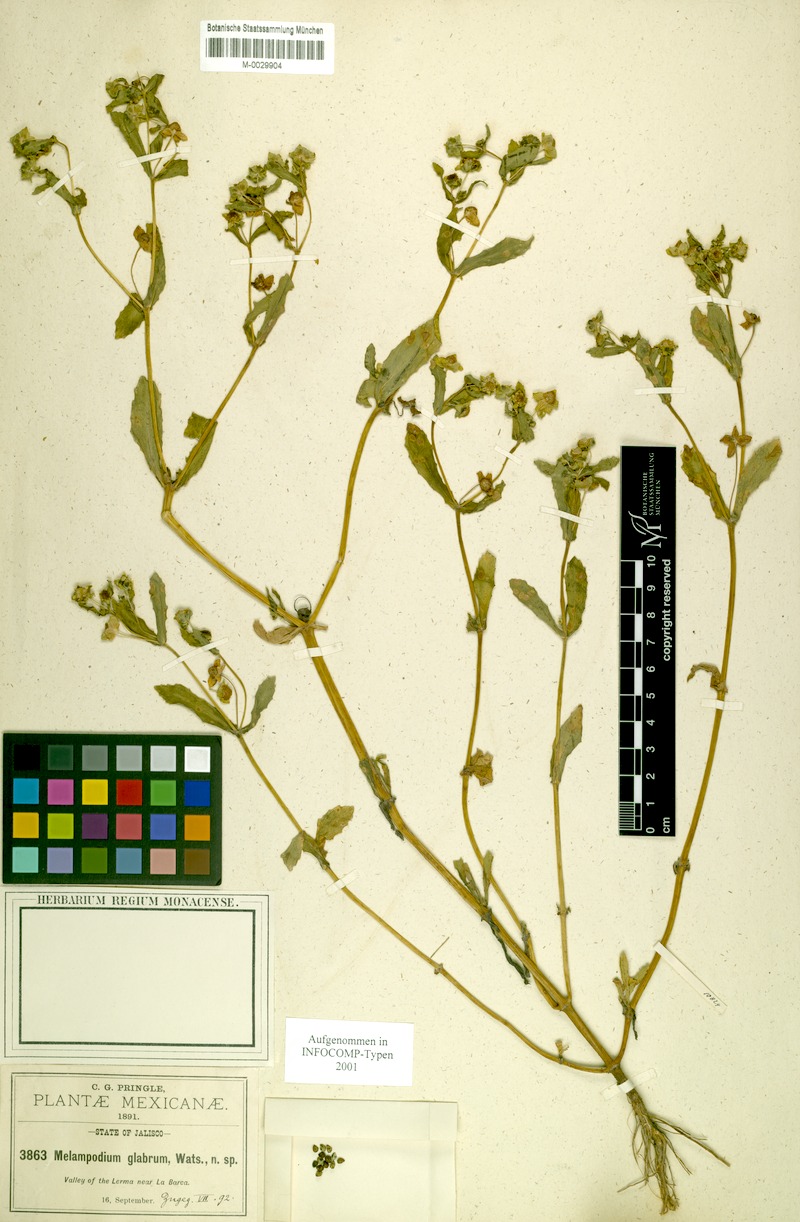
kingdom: Plantae
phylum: Tracheophyta
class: Magnoliopsida
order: Asterales
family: Asteraceae
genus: Melampodium
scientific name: Melampodium glabrum
